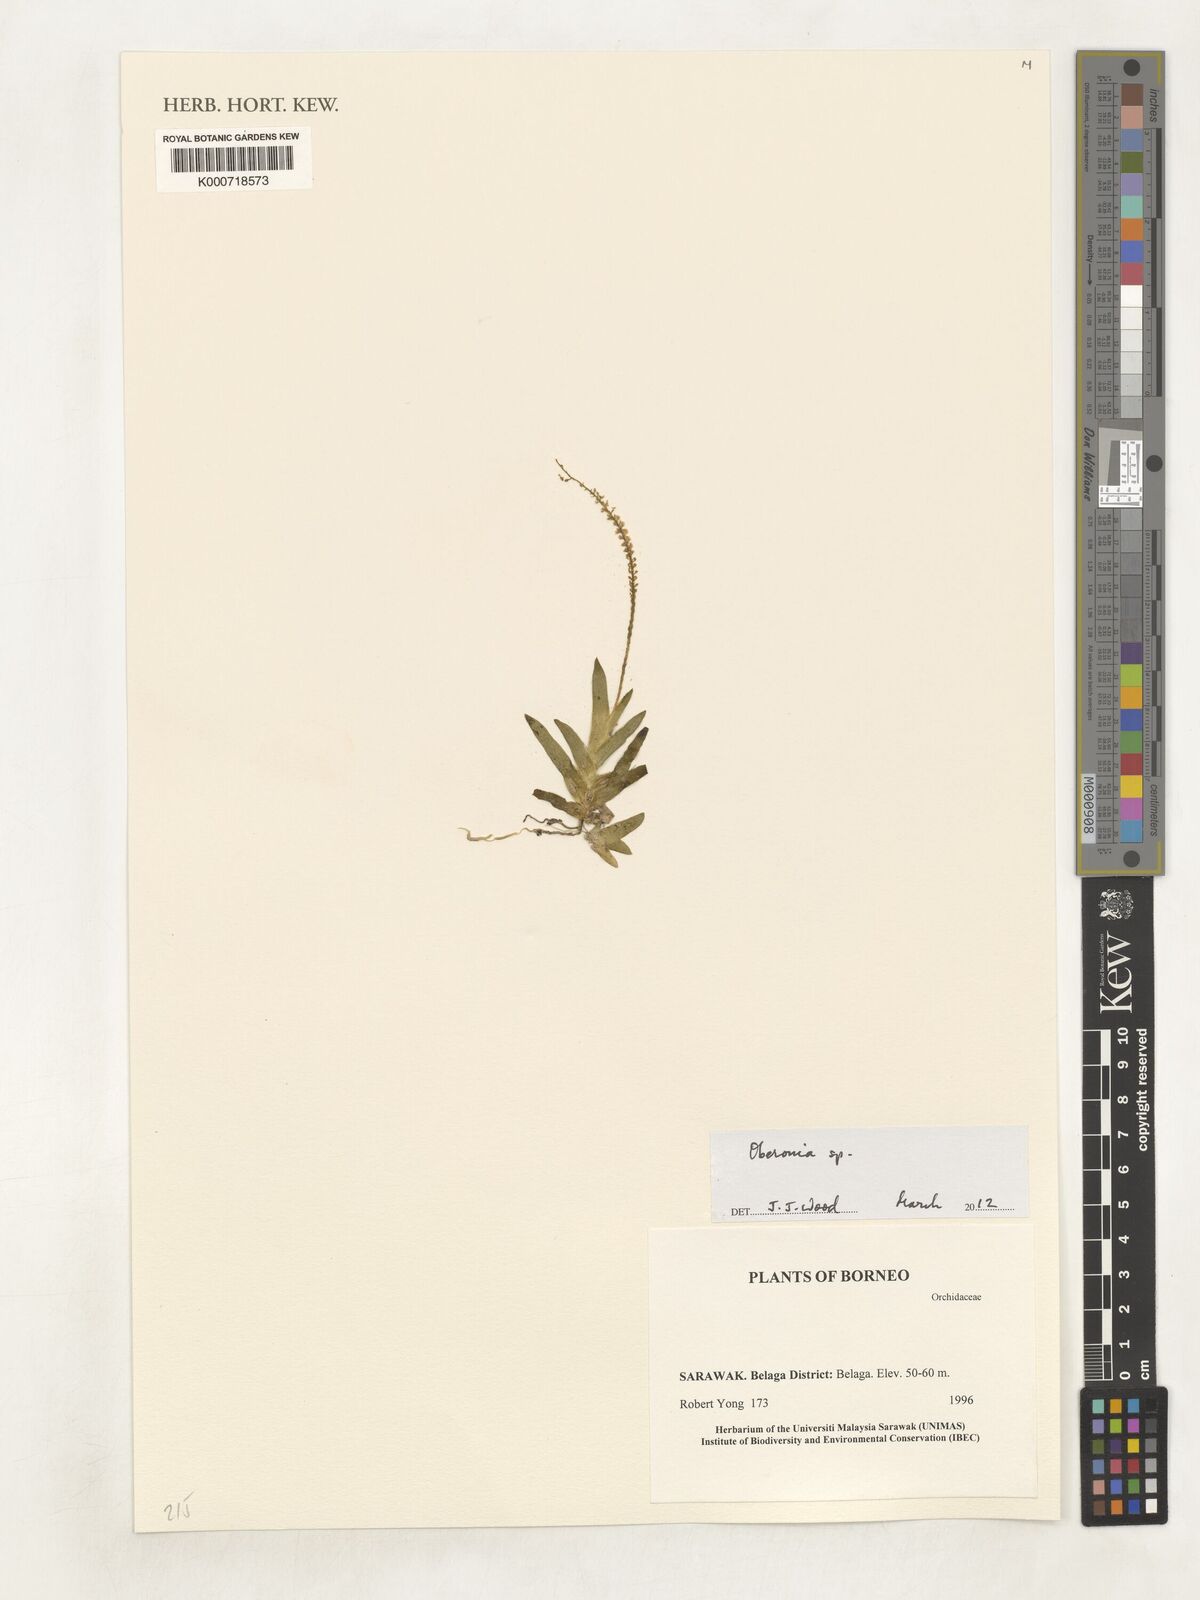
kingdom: Plantae
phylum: Tracheophyta
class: Liliopsida
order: Asparagales
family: Orchidaceae
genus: Oberonia
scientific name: Oberonia
